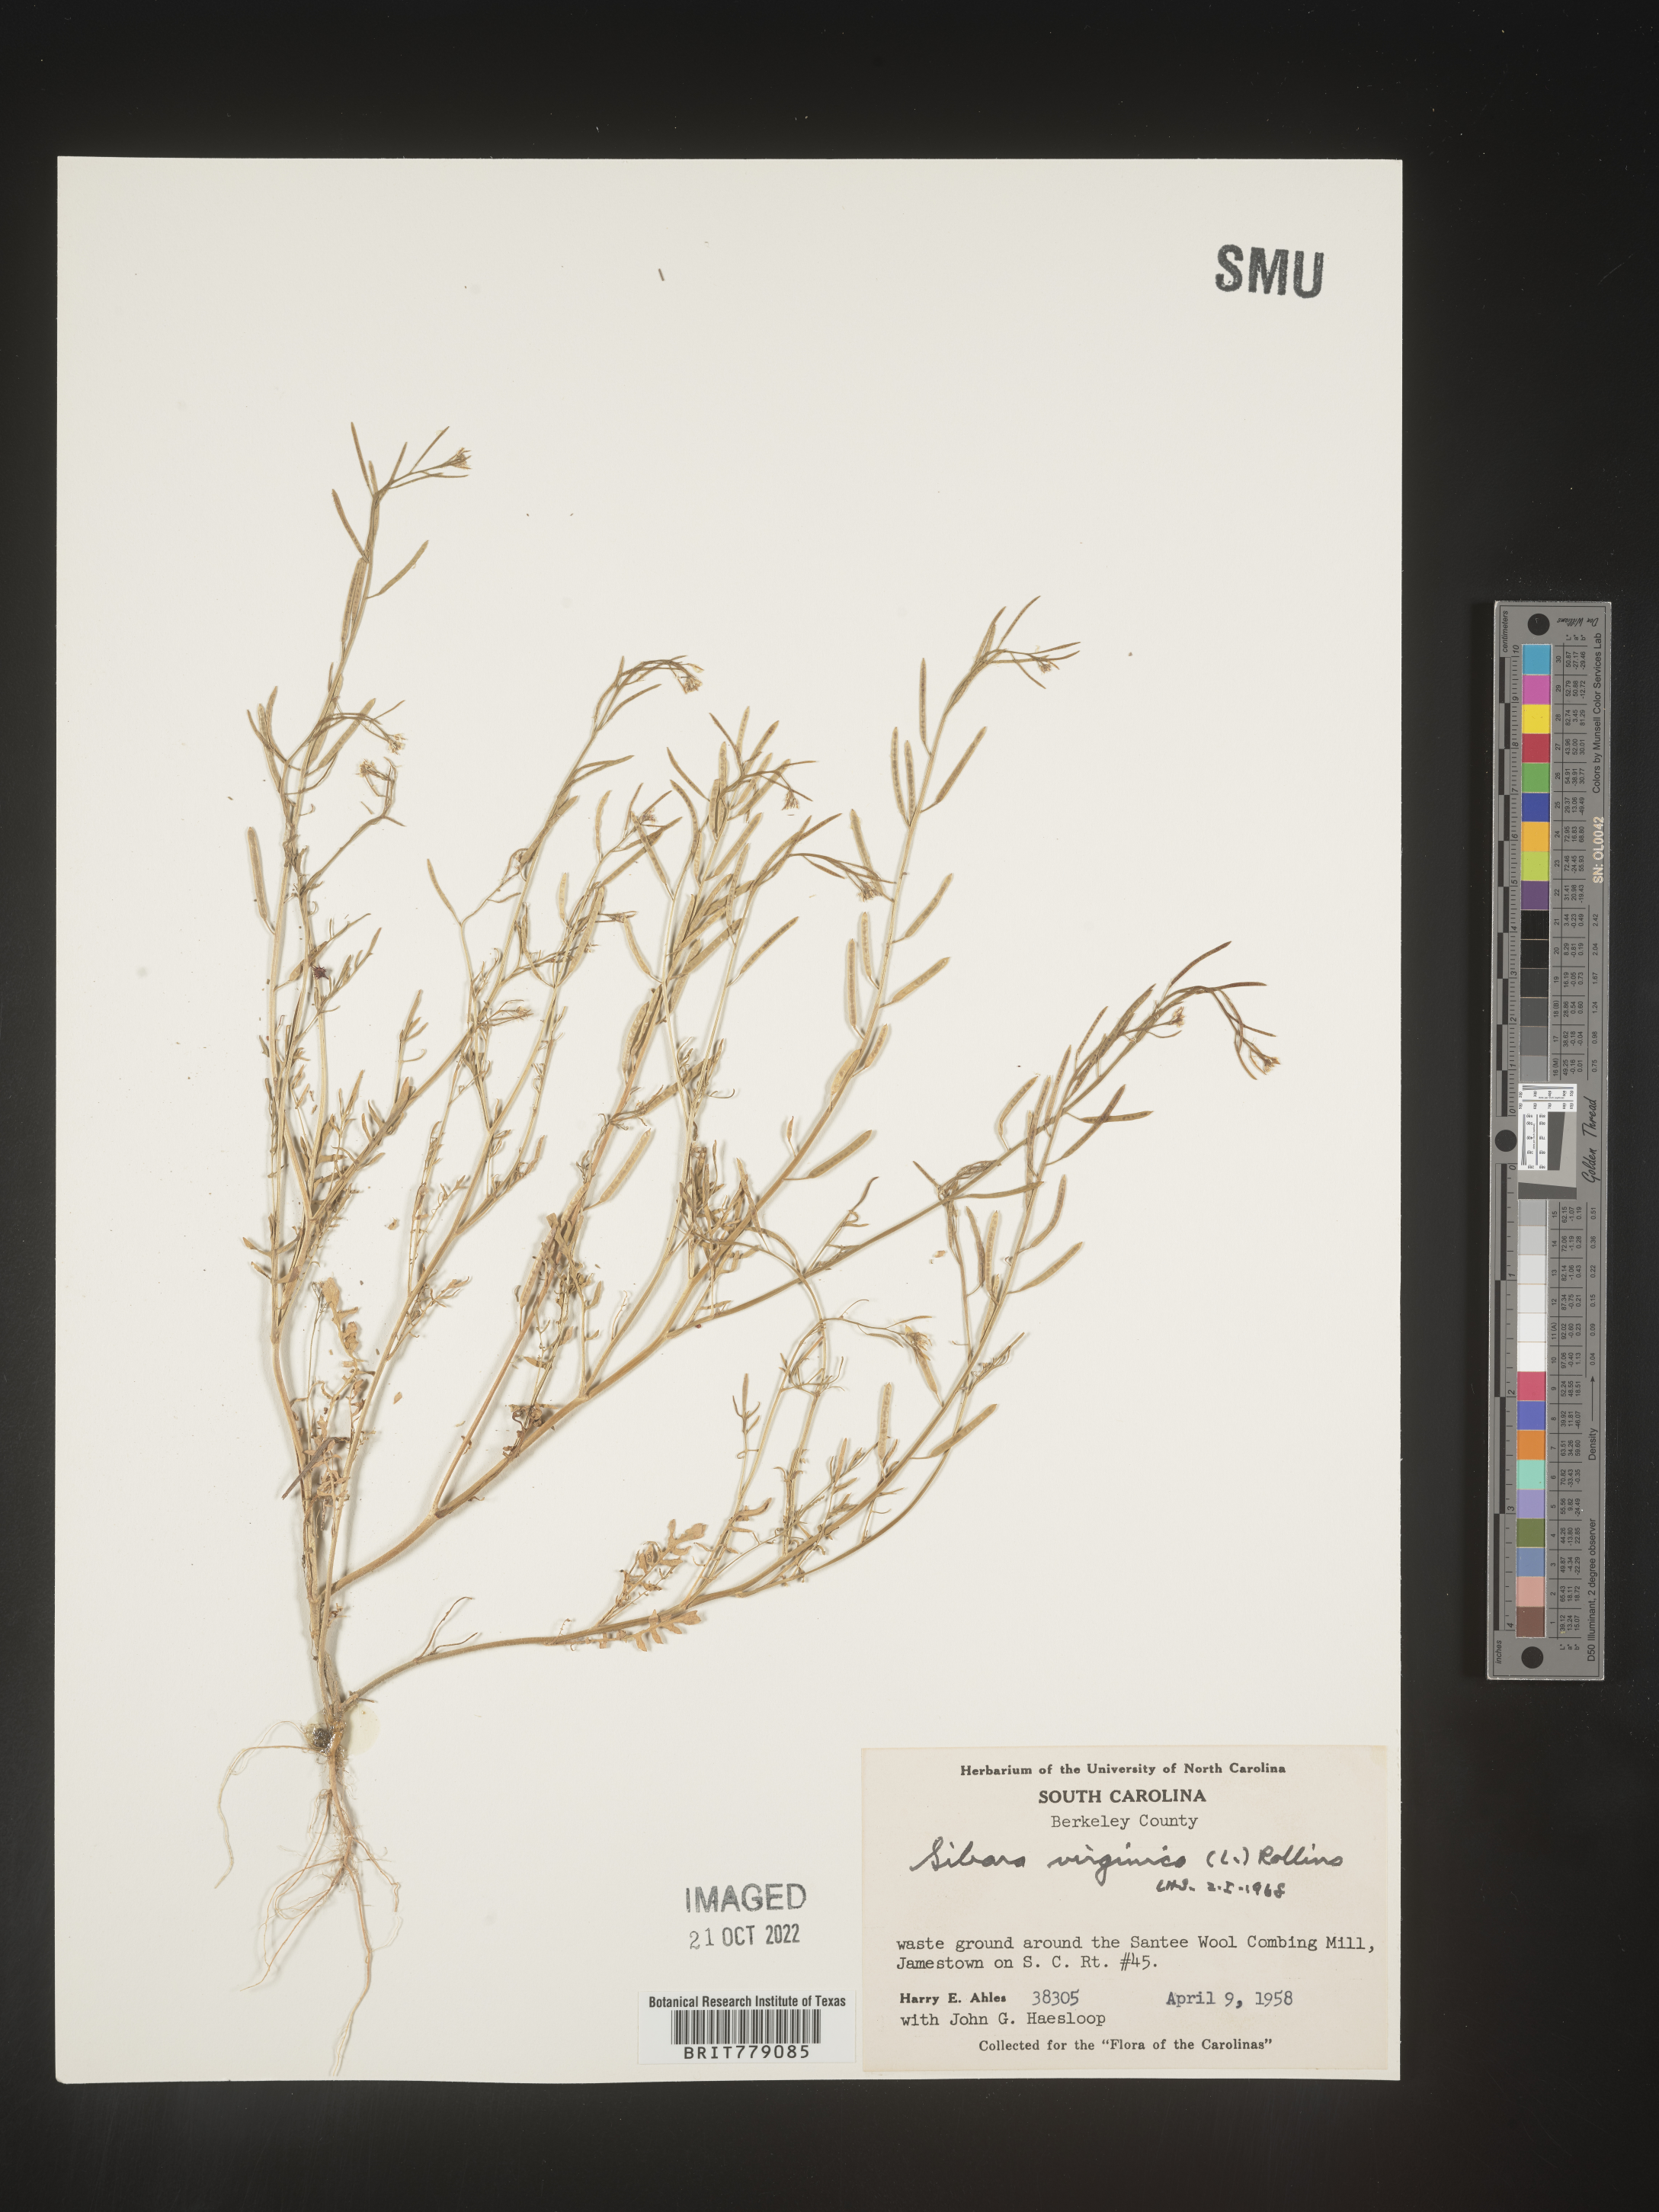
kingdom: Plantae
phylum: Tracheophyta
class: Magnoliopsida
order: Brassicales
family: Brassicaceae
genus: Sibara
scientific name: Sibara
